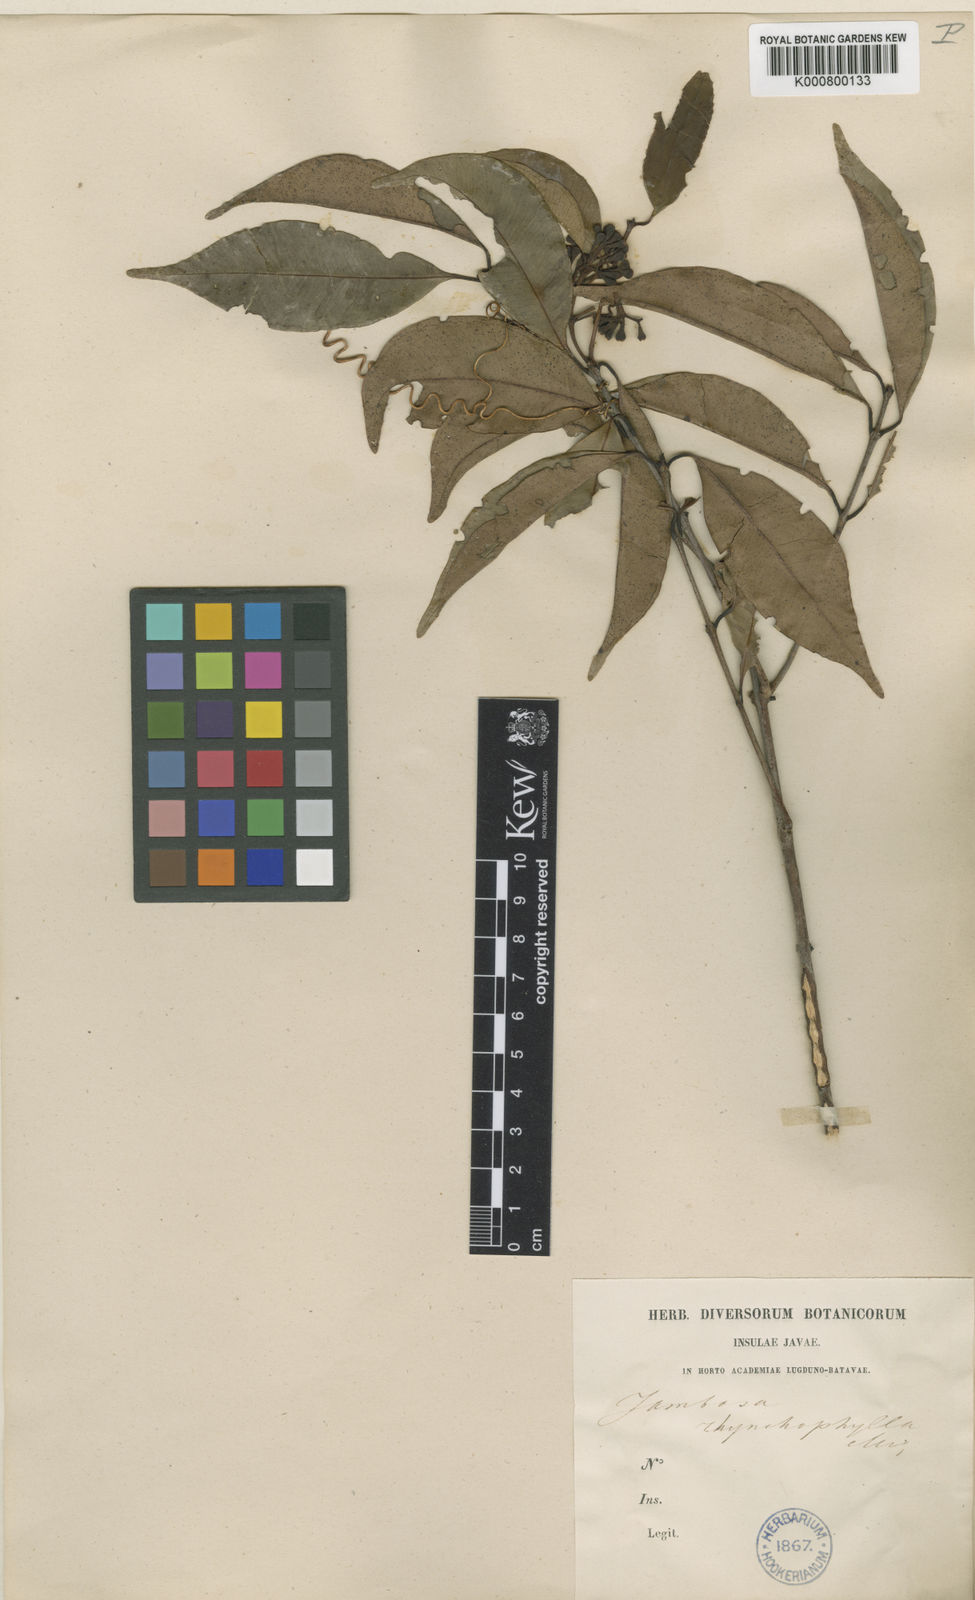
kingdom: Plantae
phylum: Tracheophyta
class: Magnoliopsida
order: Myrtales
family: Myrtaceae
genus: Syzygium
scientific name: Syzygium
